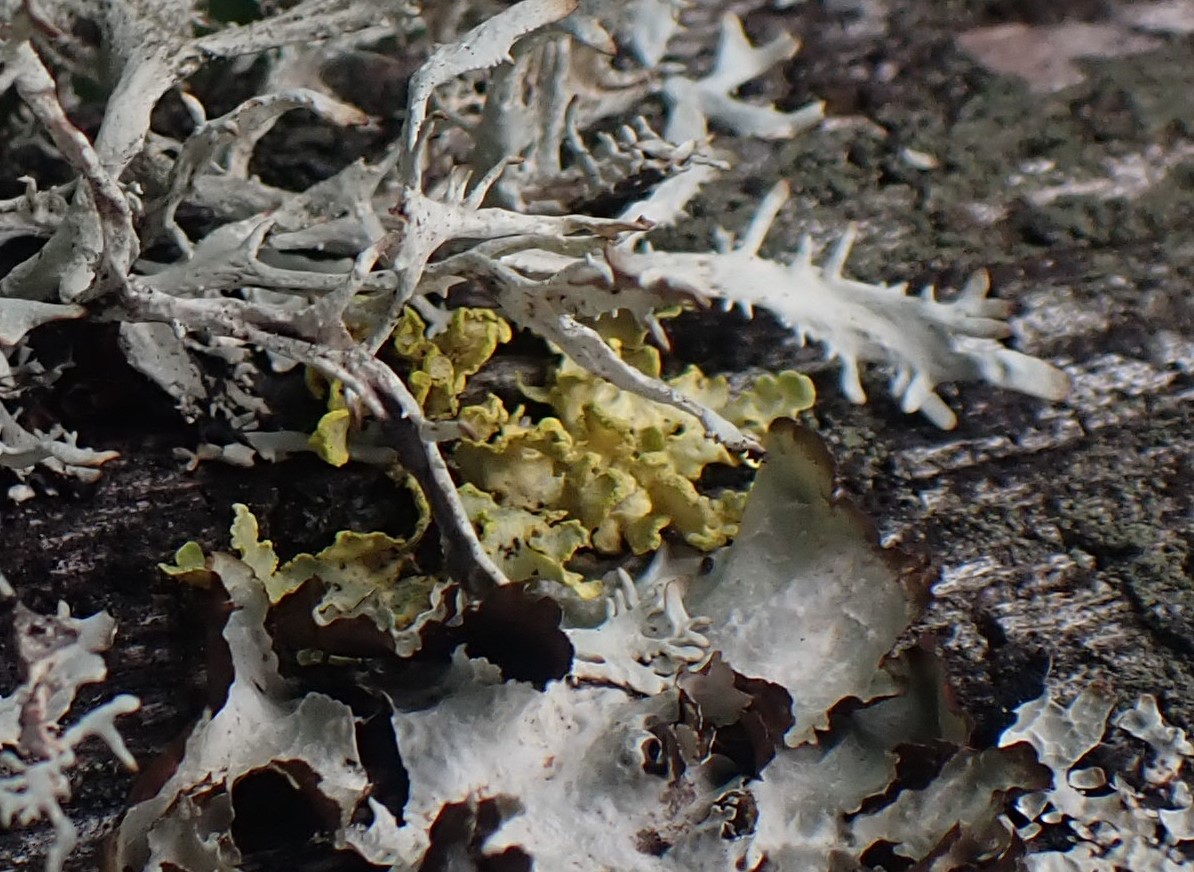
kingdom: Fungi
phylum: Ascomycota
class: Lecanoromycetes
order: Lecanorales
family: Parmeliaceae
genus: Vulpicida
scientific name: Vulpicida pinastri
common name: gul kruslav
